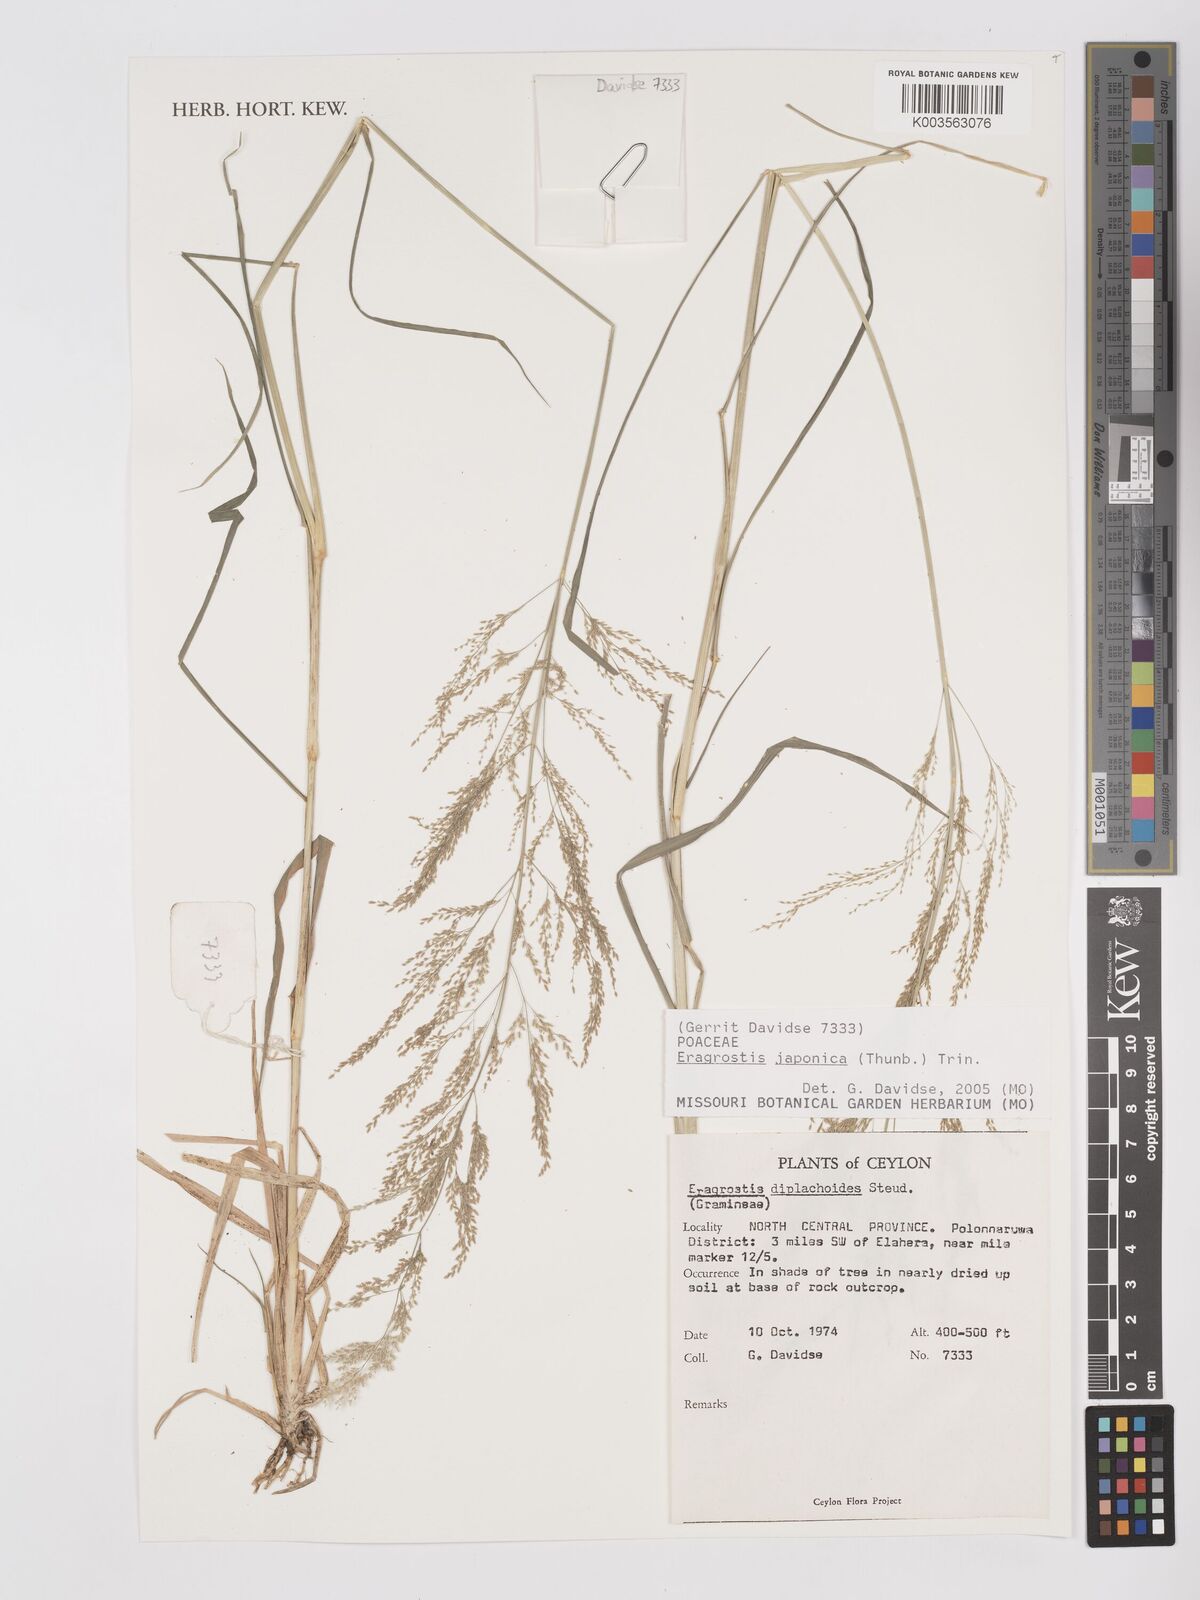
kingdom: Plantae
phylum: Tracheophyta
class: Liliopsida
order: Poales
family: Poaceae
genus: Eragrostis
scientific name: Eragrostis japonica
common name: Pond lovegrass
